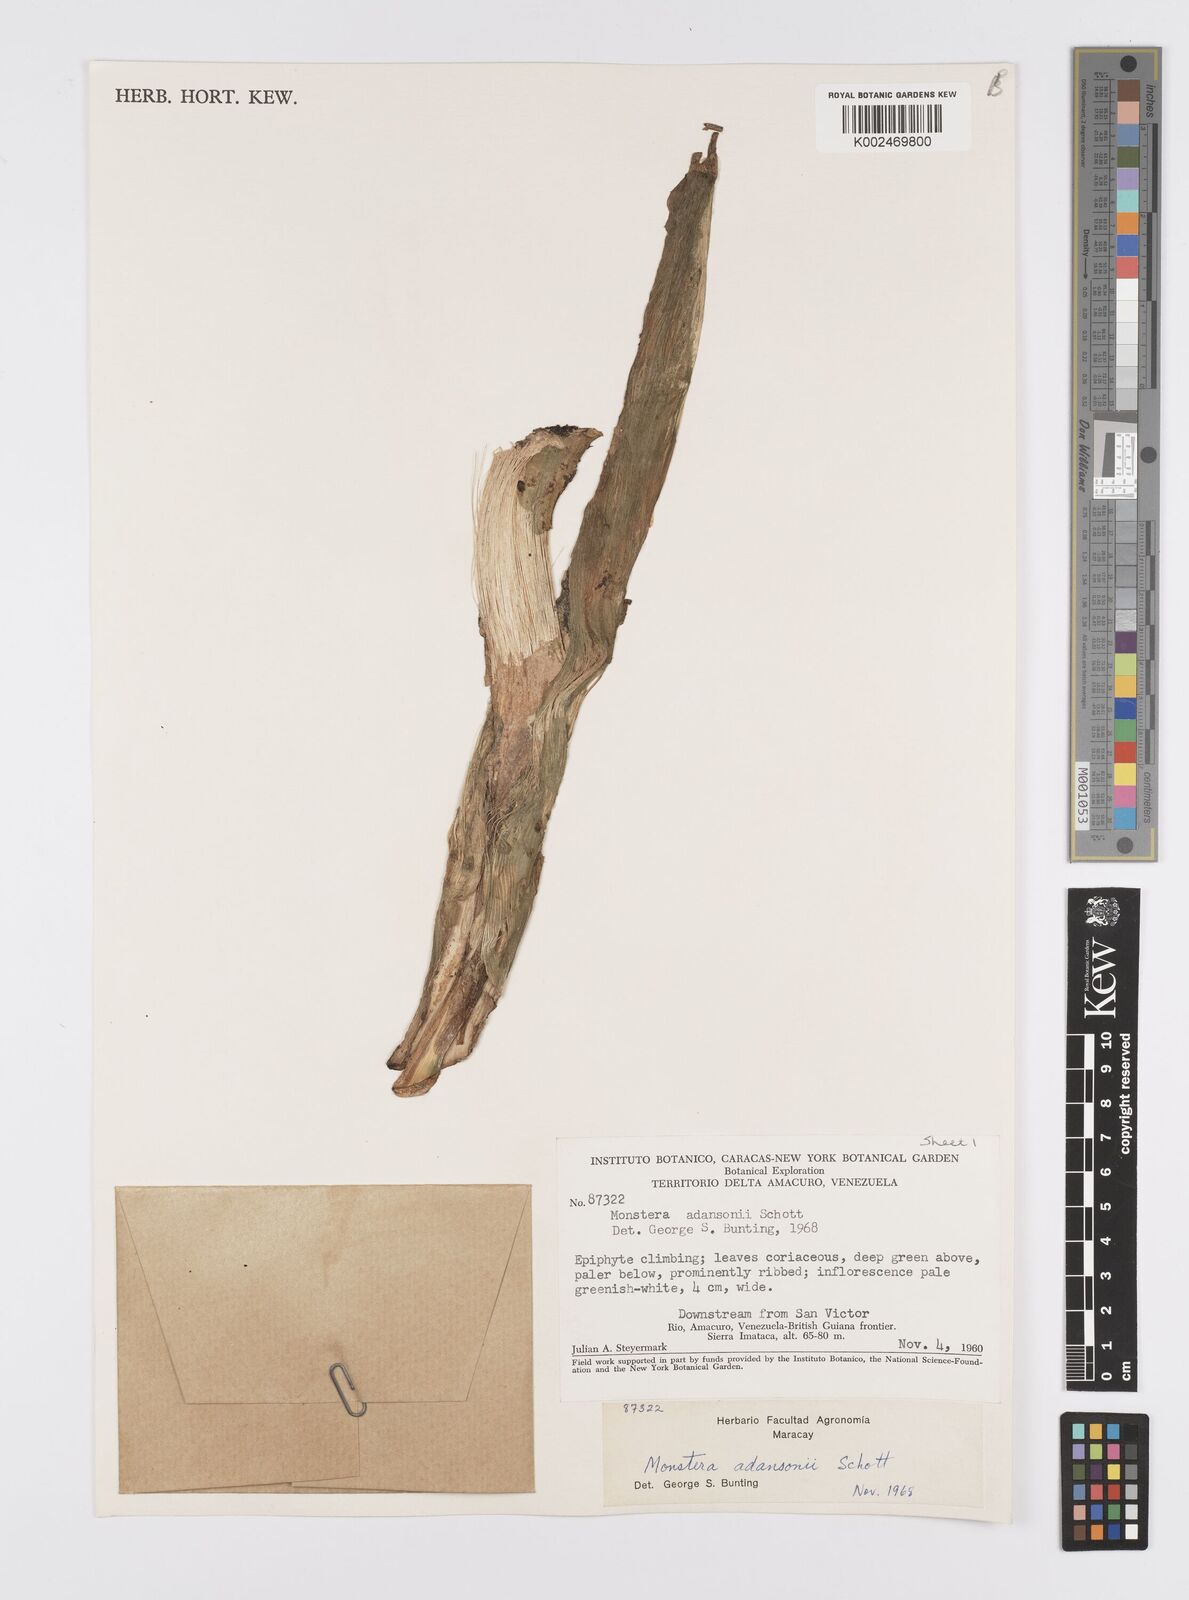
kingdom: Plantae
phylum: Tracheophyta
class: Liliopsida
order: Alismatales
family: Araceae
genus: Monstera
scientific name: Monstera adansonii
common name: Tarovine
